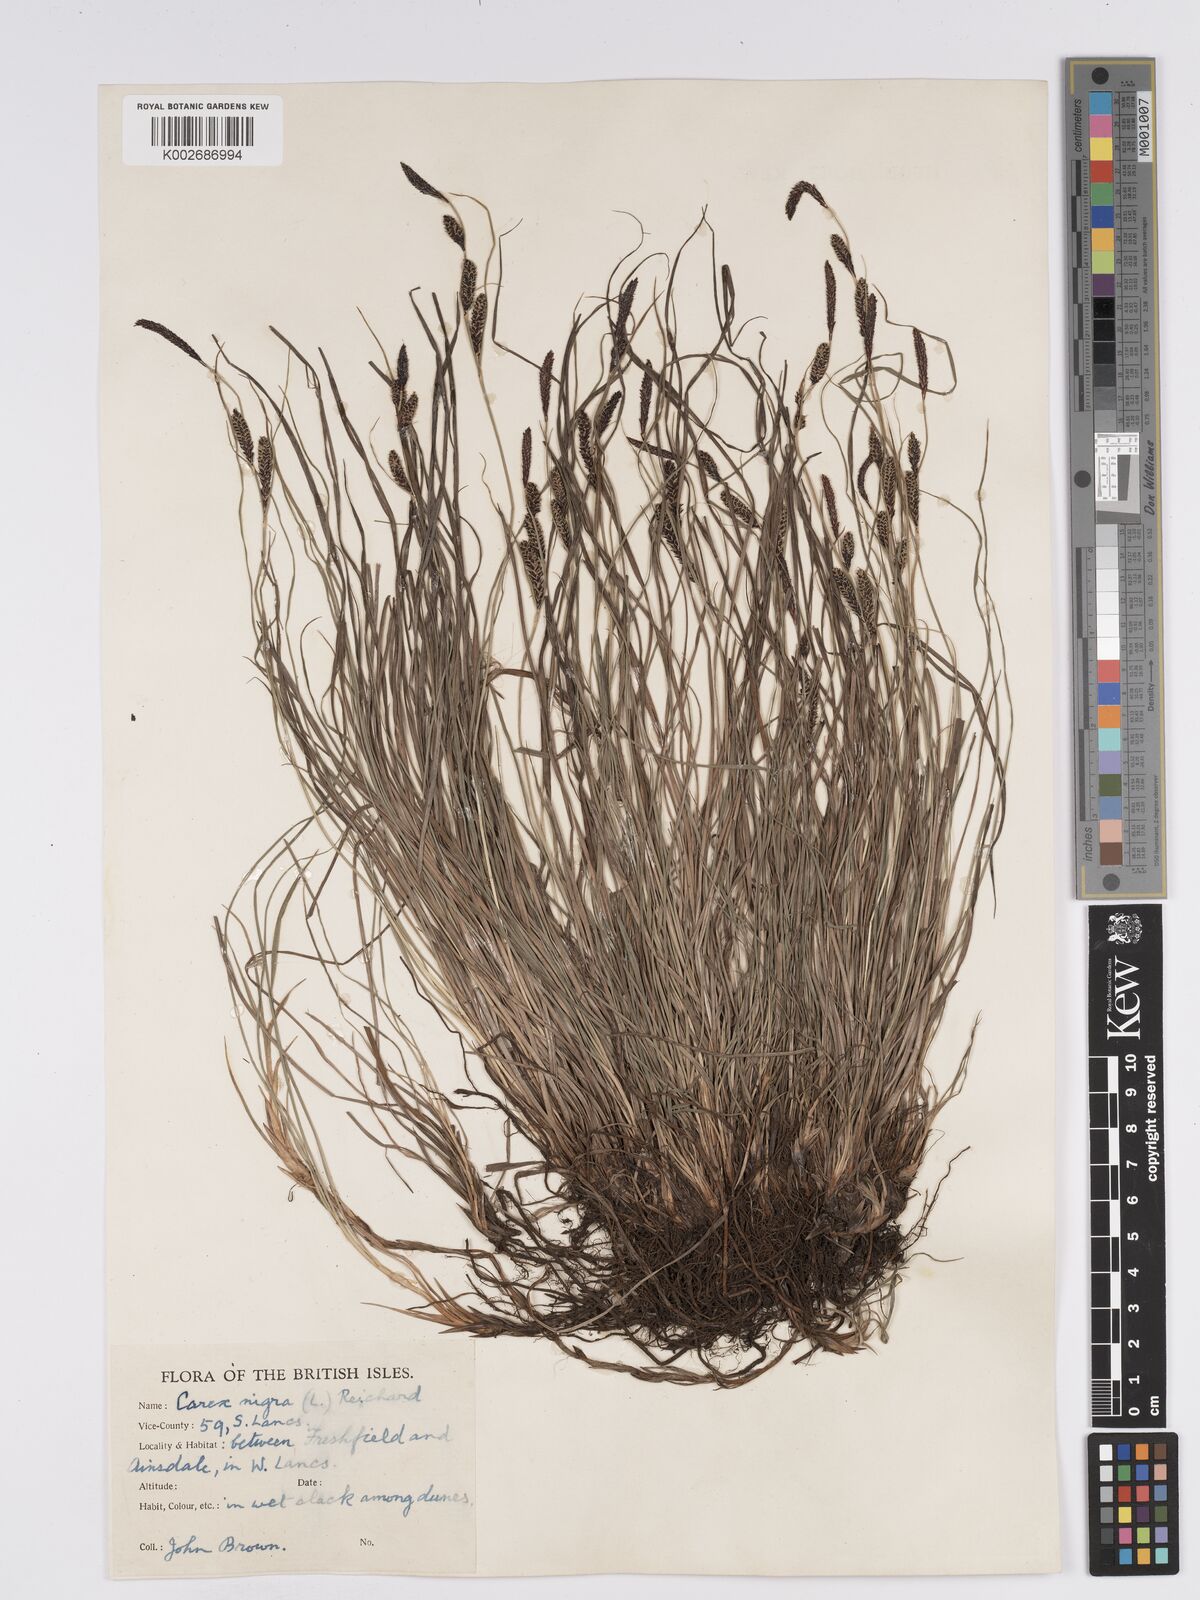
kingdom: Plantae
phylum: Tracheophyta
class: Liliopsida
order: Poales
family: Cyperaceae
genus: Carex
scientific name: Carex nigra
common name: Common sedge
